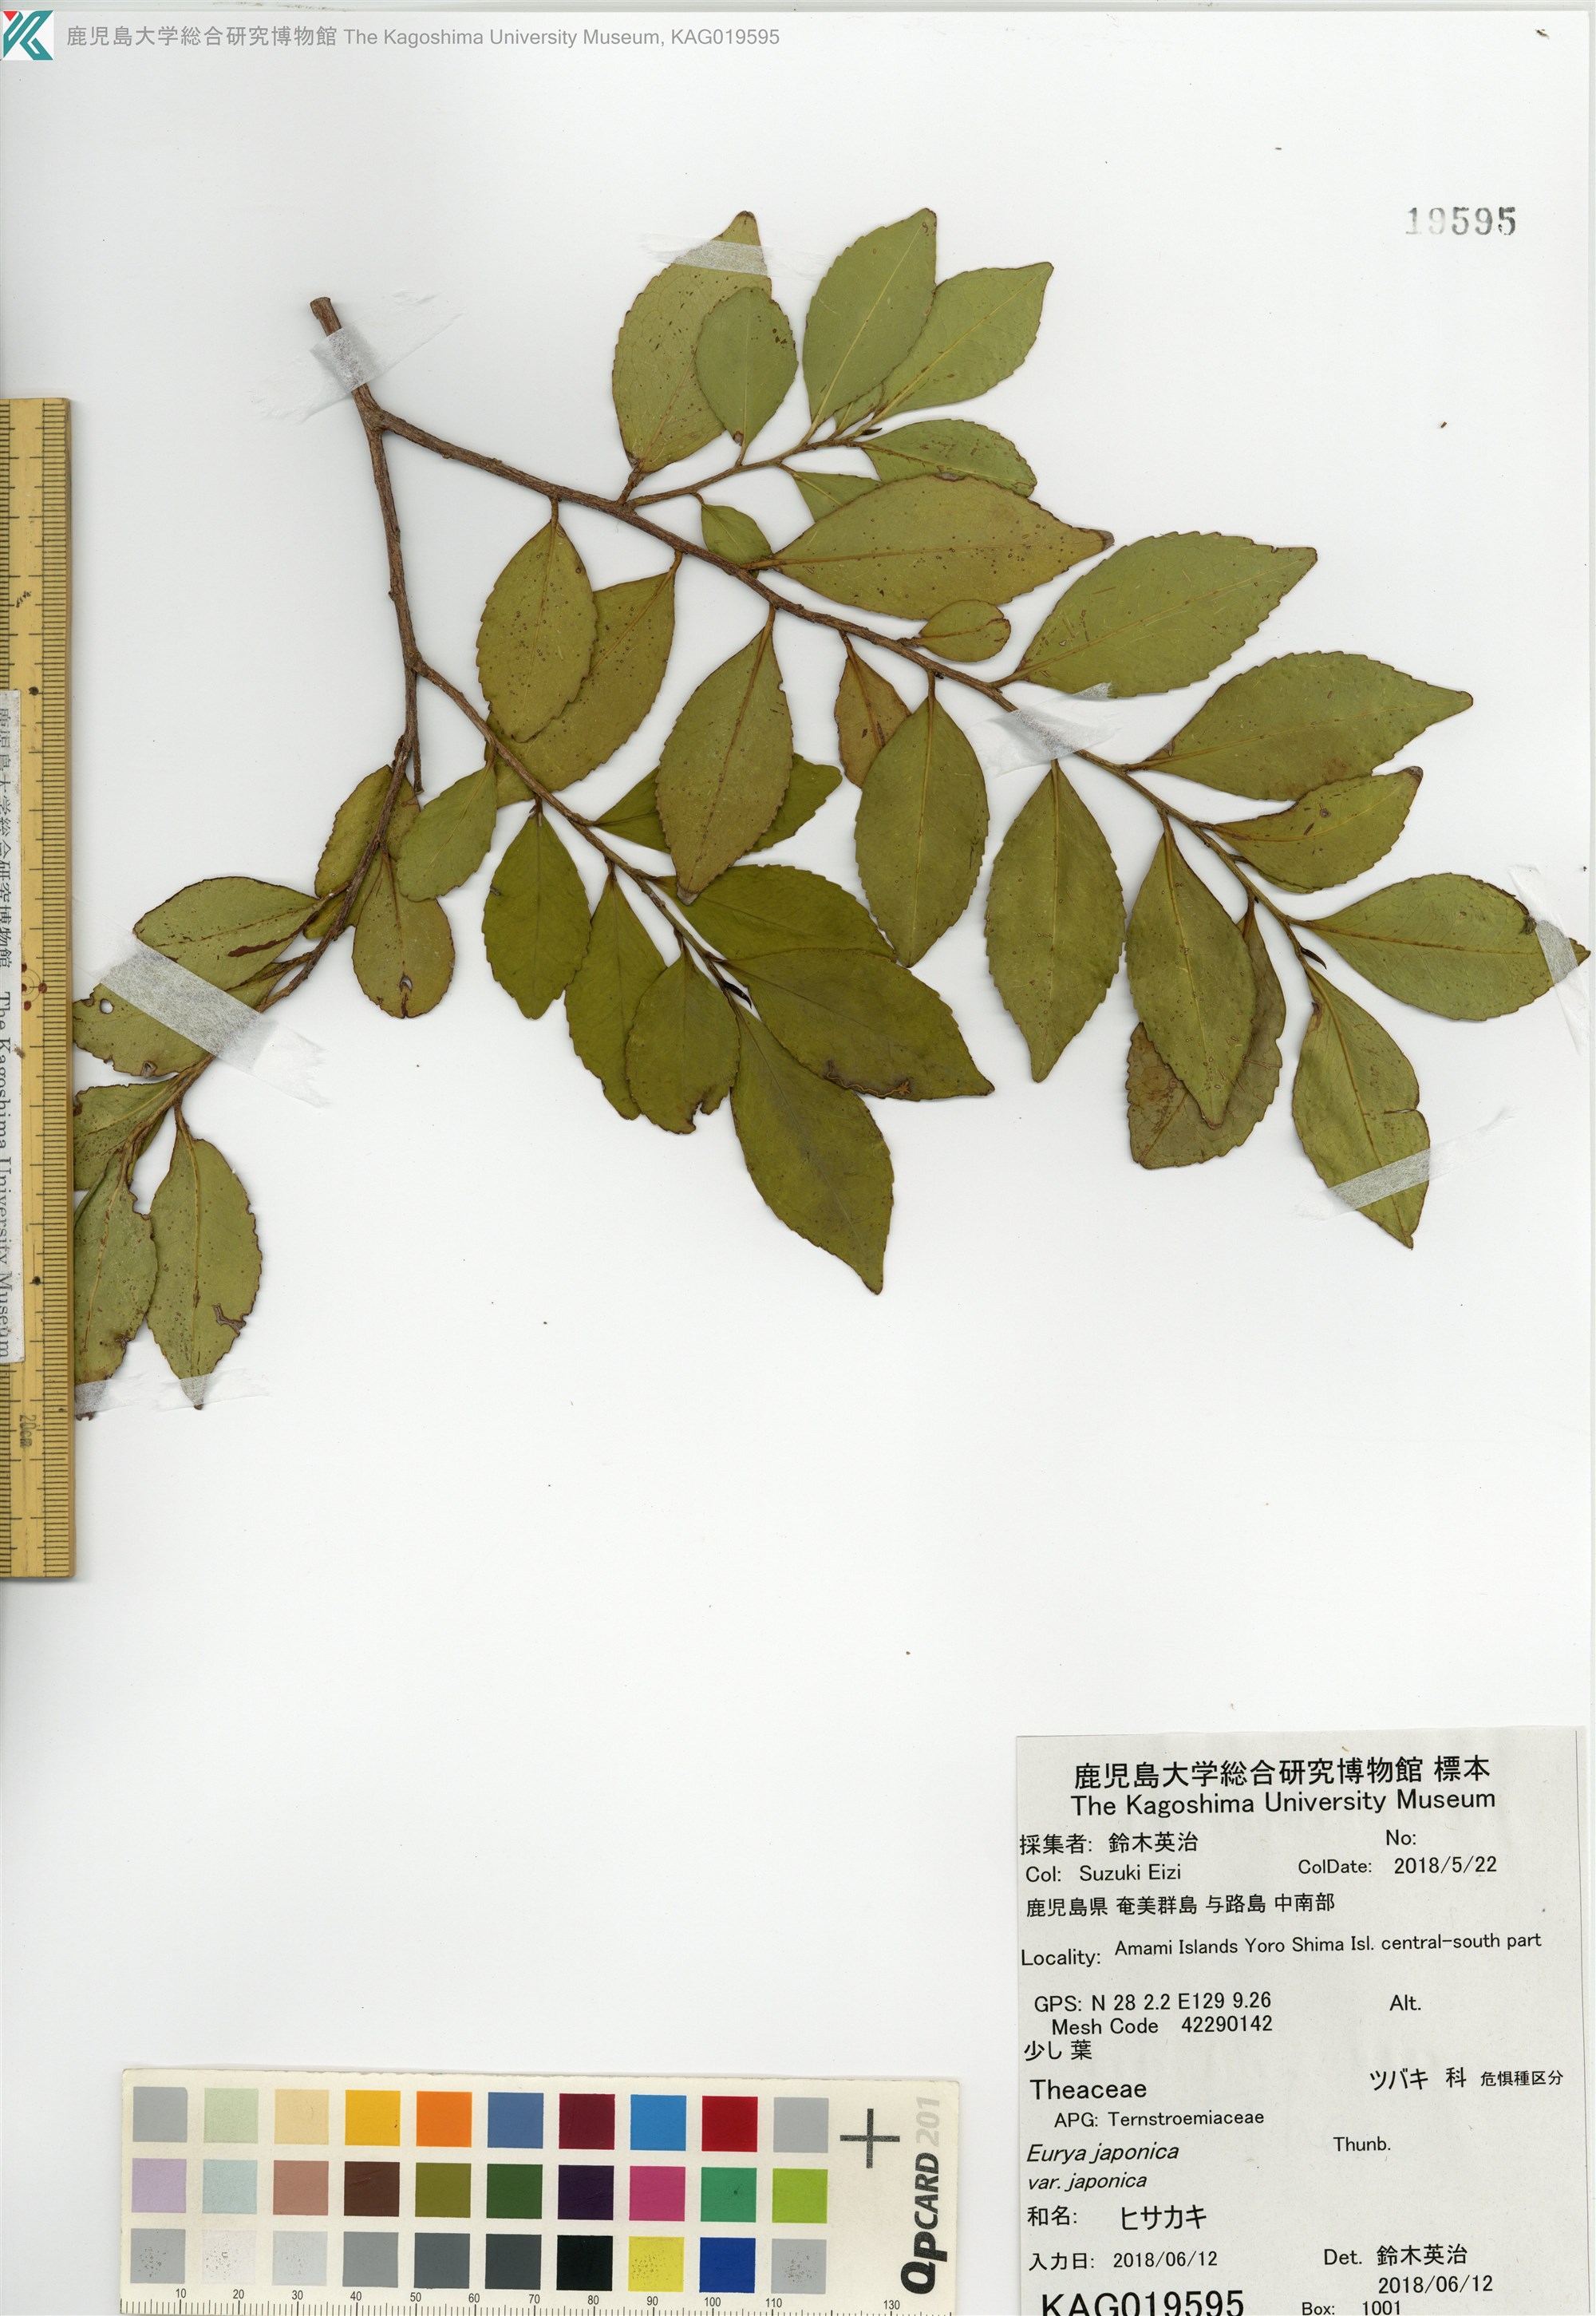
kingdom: Plantae
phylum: Tracheophyta
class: Magnoliopsida
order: Ericales
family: Pentaphylacaceae
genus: Eurya
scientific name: Eurya japonica
